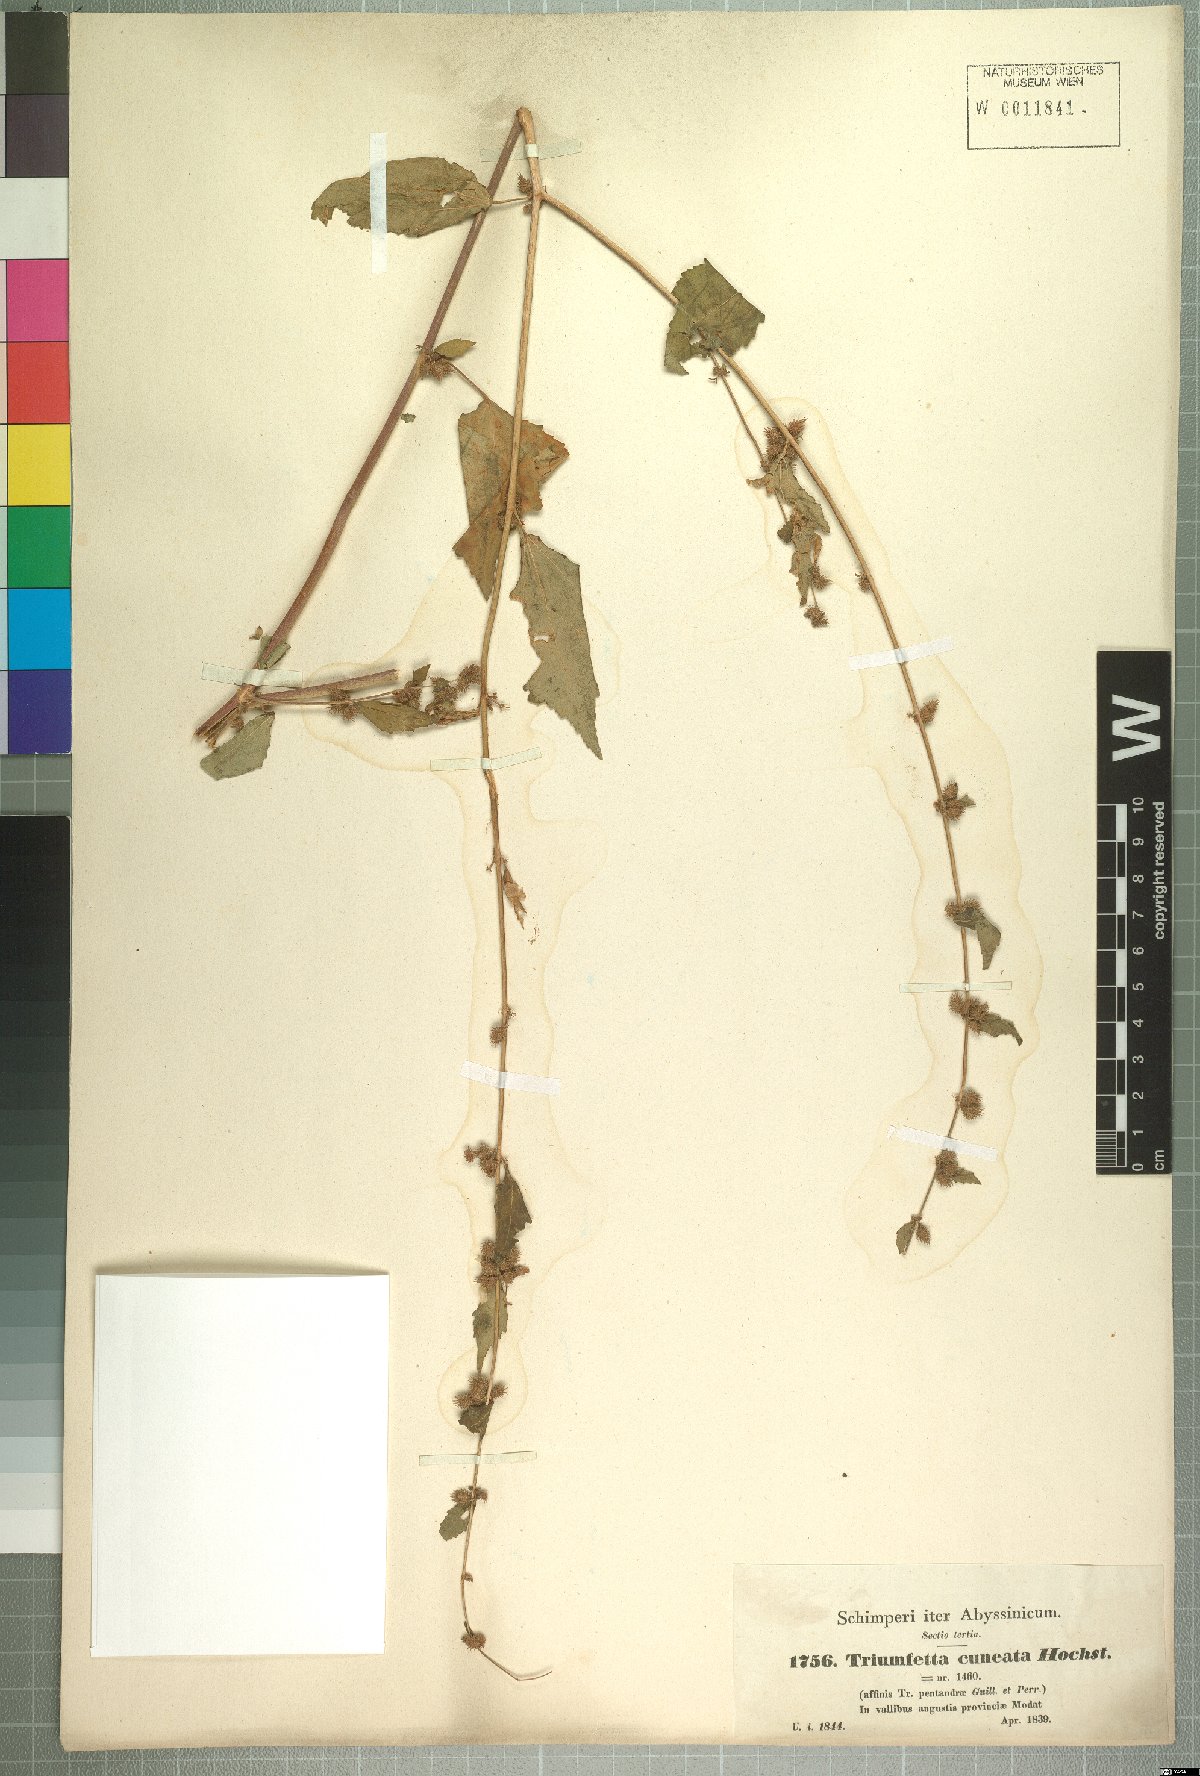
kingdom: Plantae
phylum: Tracheophyta
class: Magnoliopsida
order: Malvales
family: Malvaceae
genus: Triumfetta
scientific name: Triumfetta pentandra
